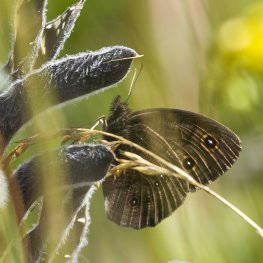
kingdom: Animalia
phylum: Arthropoda
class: Insecta
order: Lepidoptera
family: Nymphalidae
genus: Cercyonis
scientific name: Cercyonis pegala
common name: Common Wood-Nymph
